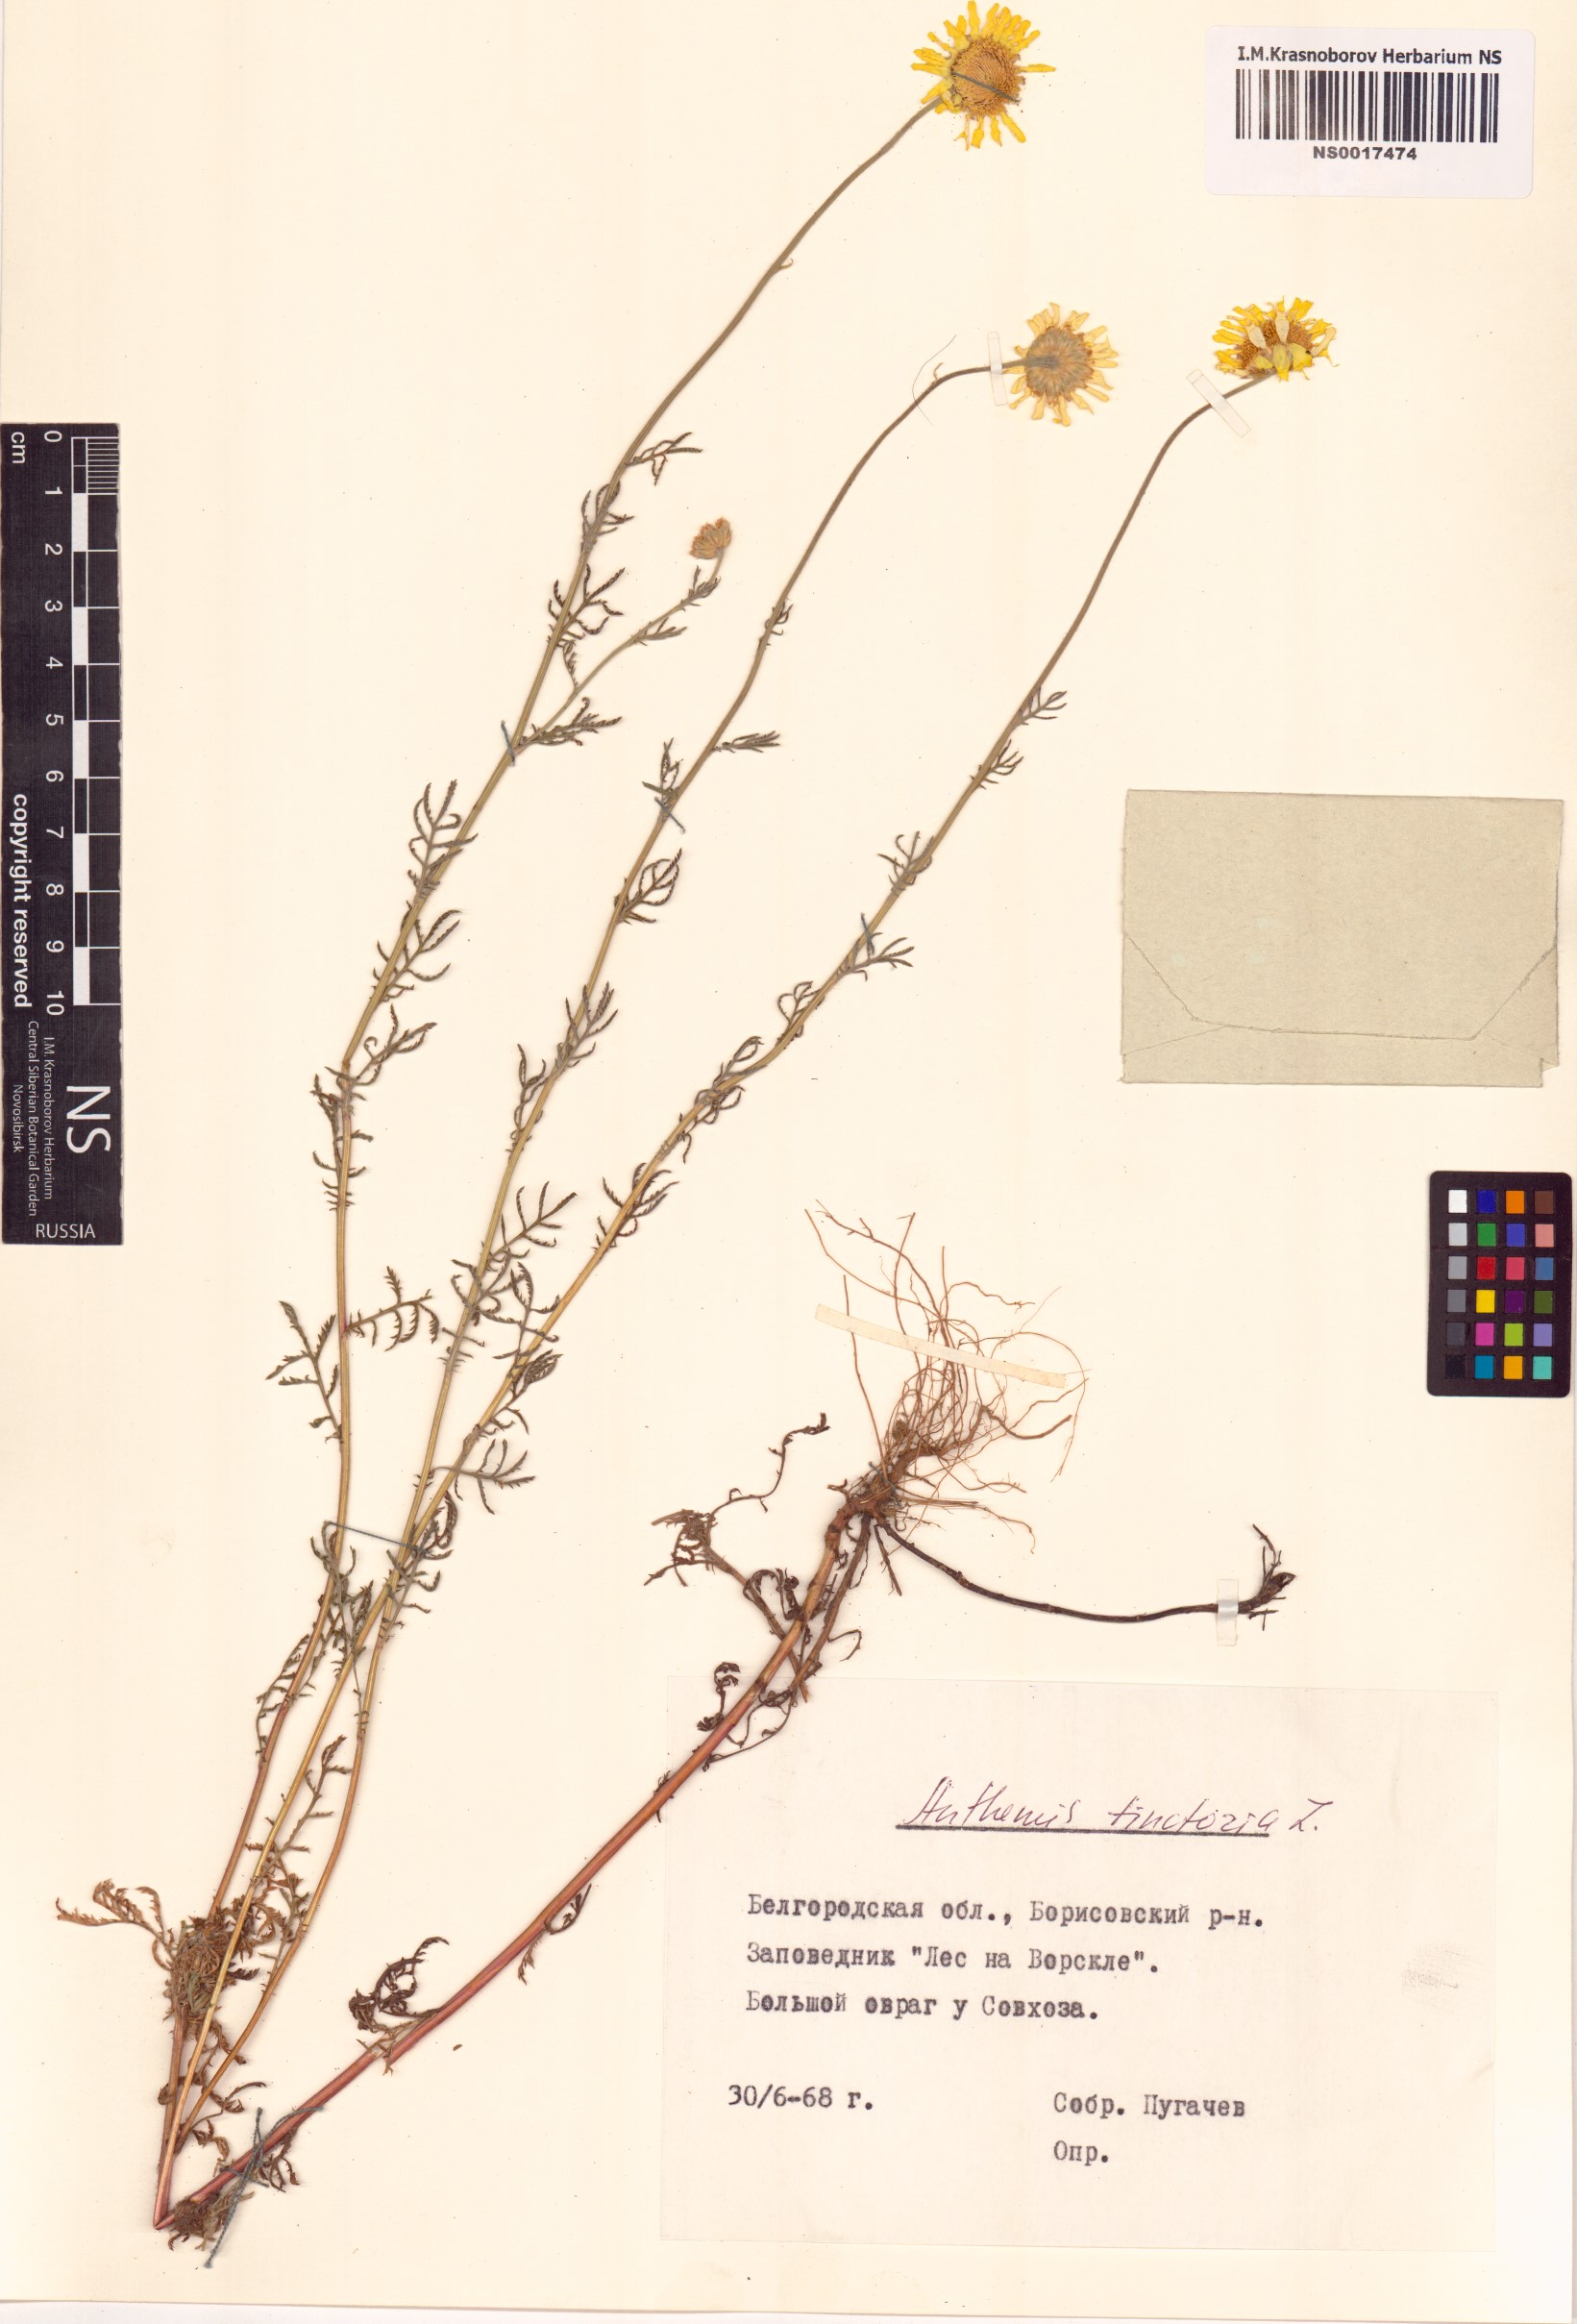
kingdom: Plantae
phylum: Tracheophyta
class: Magnoliopsida
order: Asterales
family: Asteraceae
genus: Cota
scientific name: Cota tinctoria
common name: Golden chamomile
